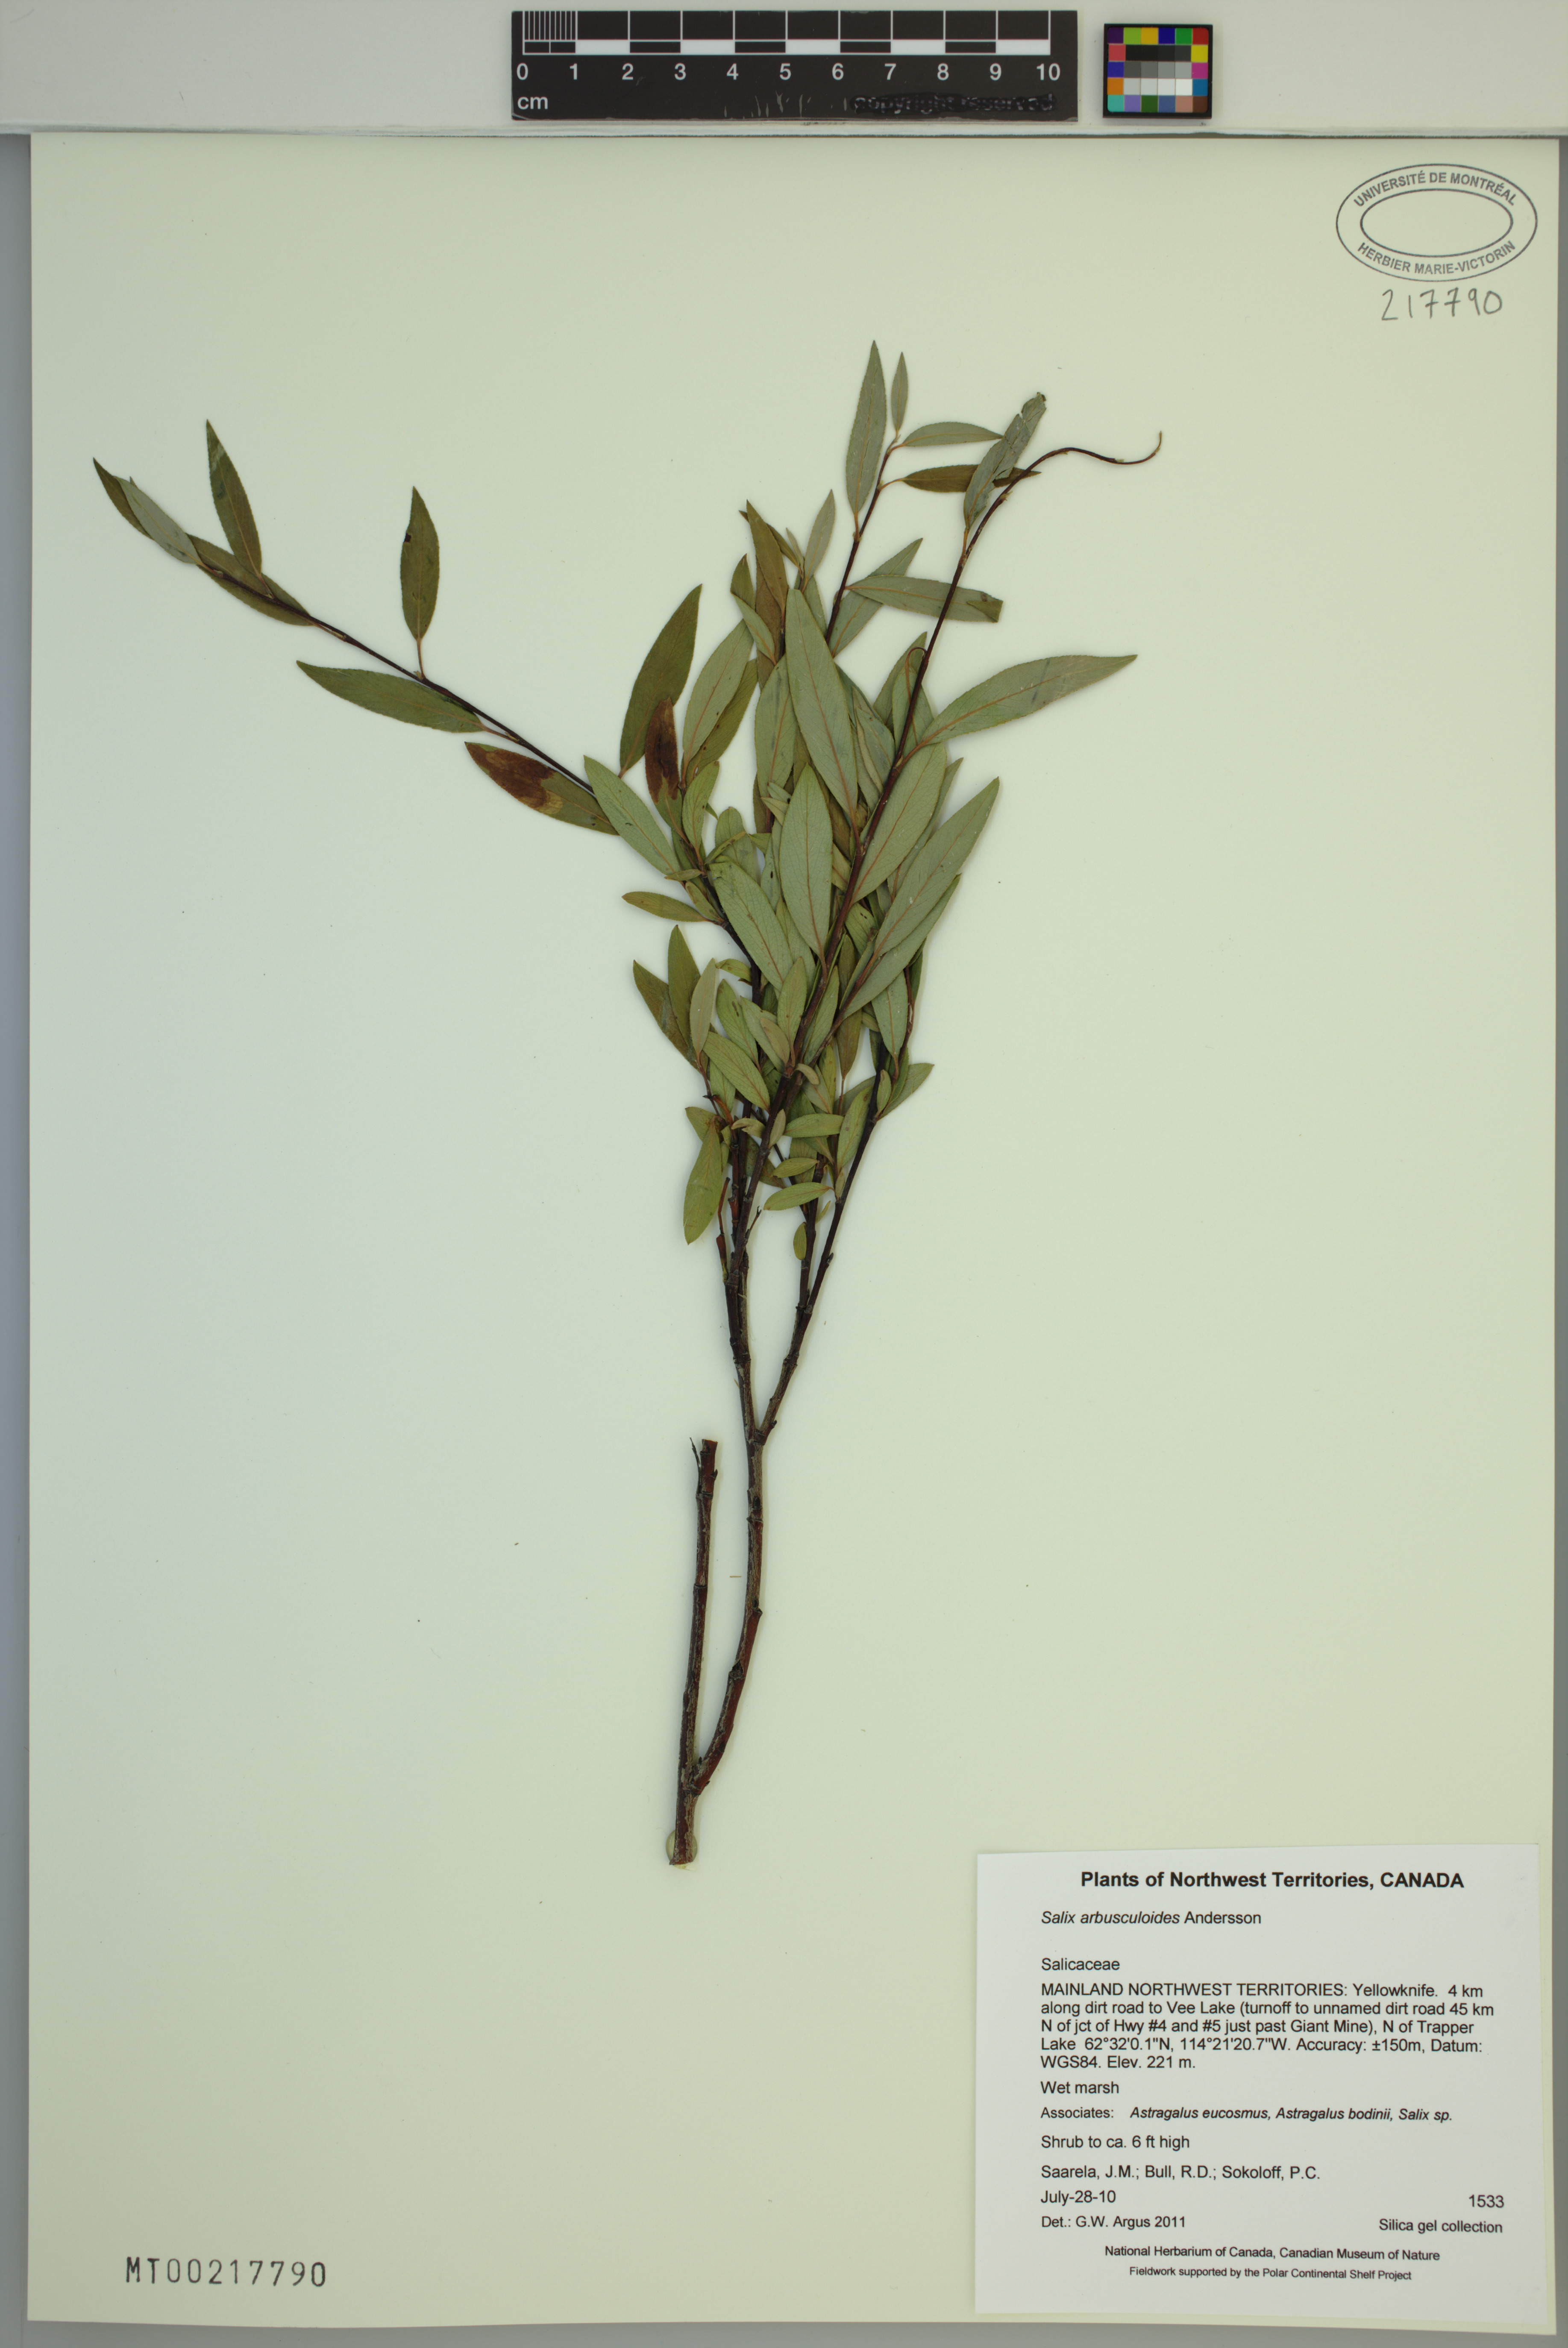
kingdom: Plantae
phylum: Tracheophyta
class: Magnoliopsida
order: Malpighiales
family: Salicaceae
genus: Salix
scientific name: Salix arbusculoides
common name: Little-tree willow
